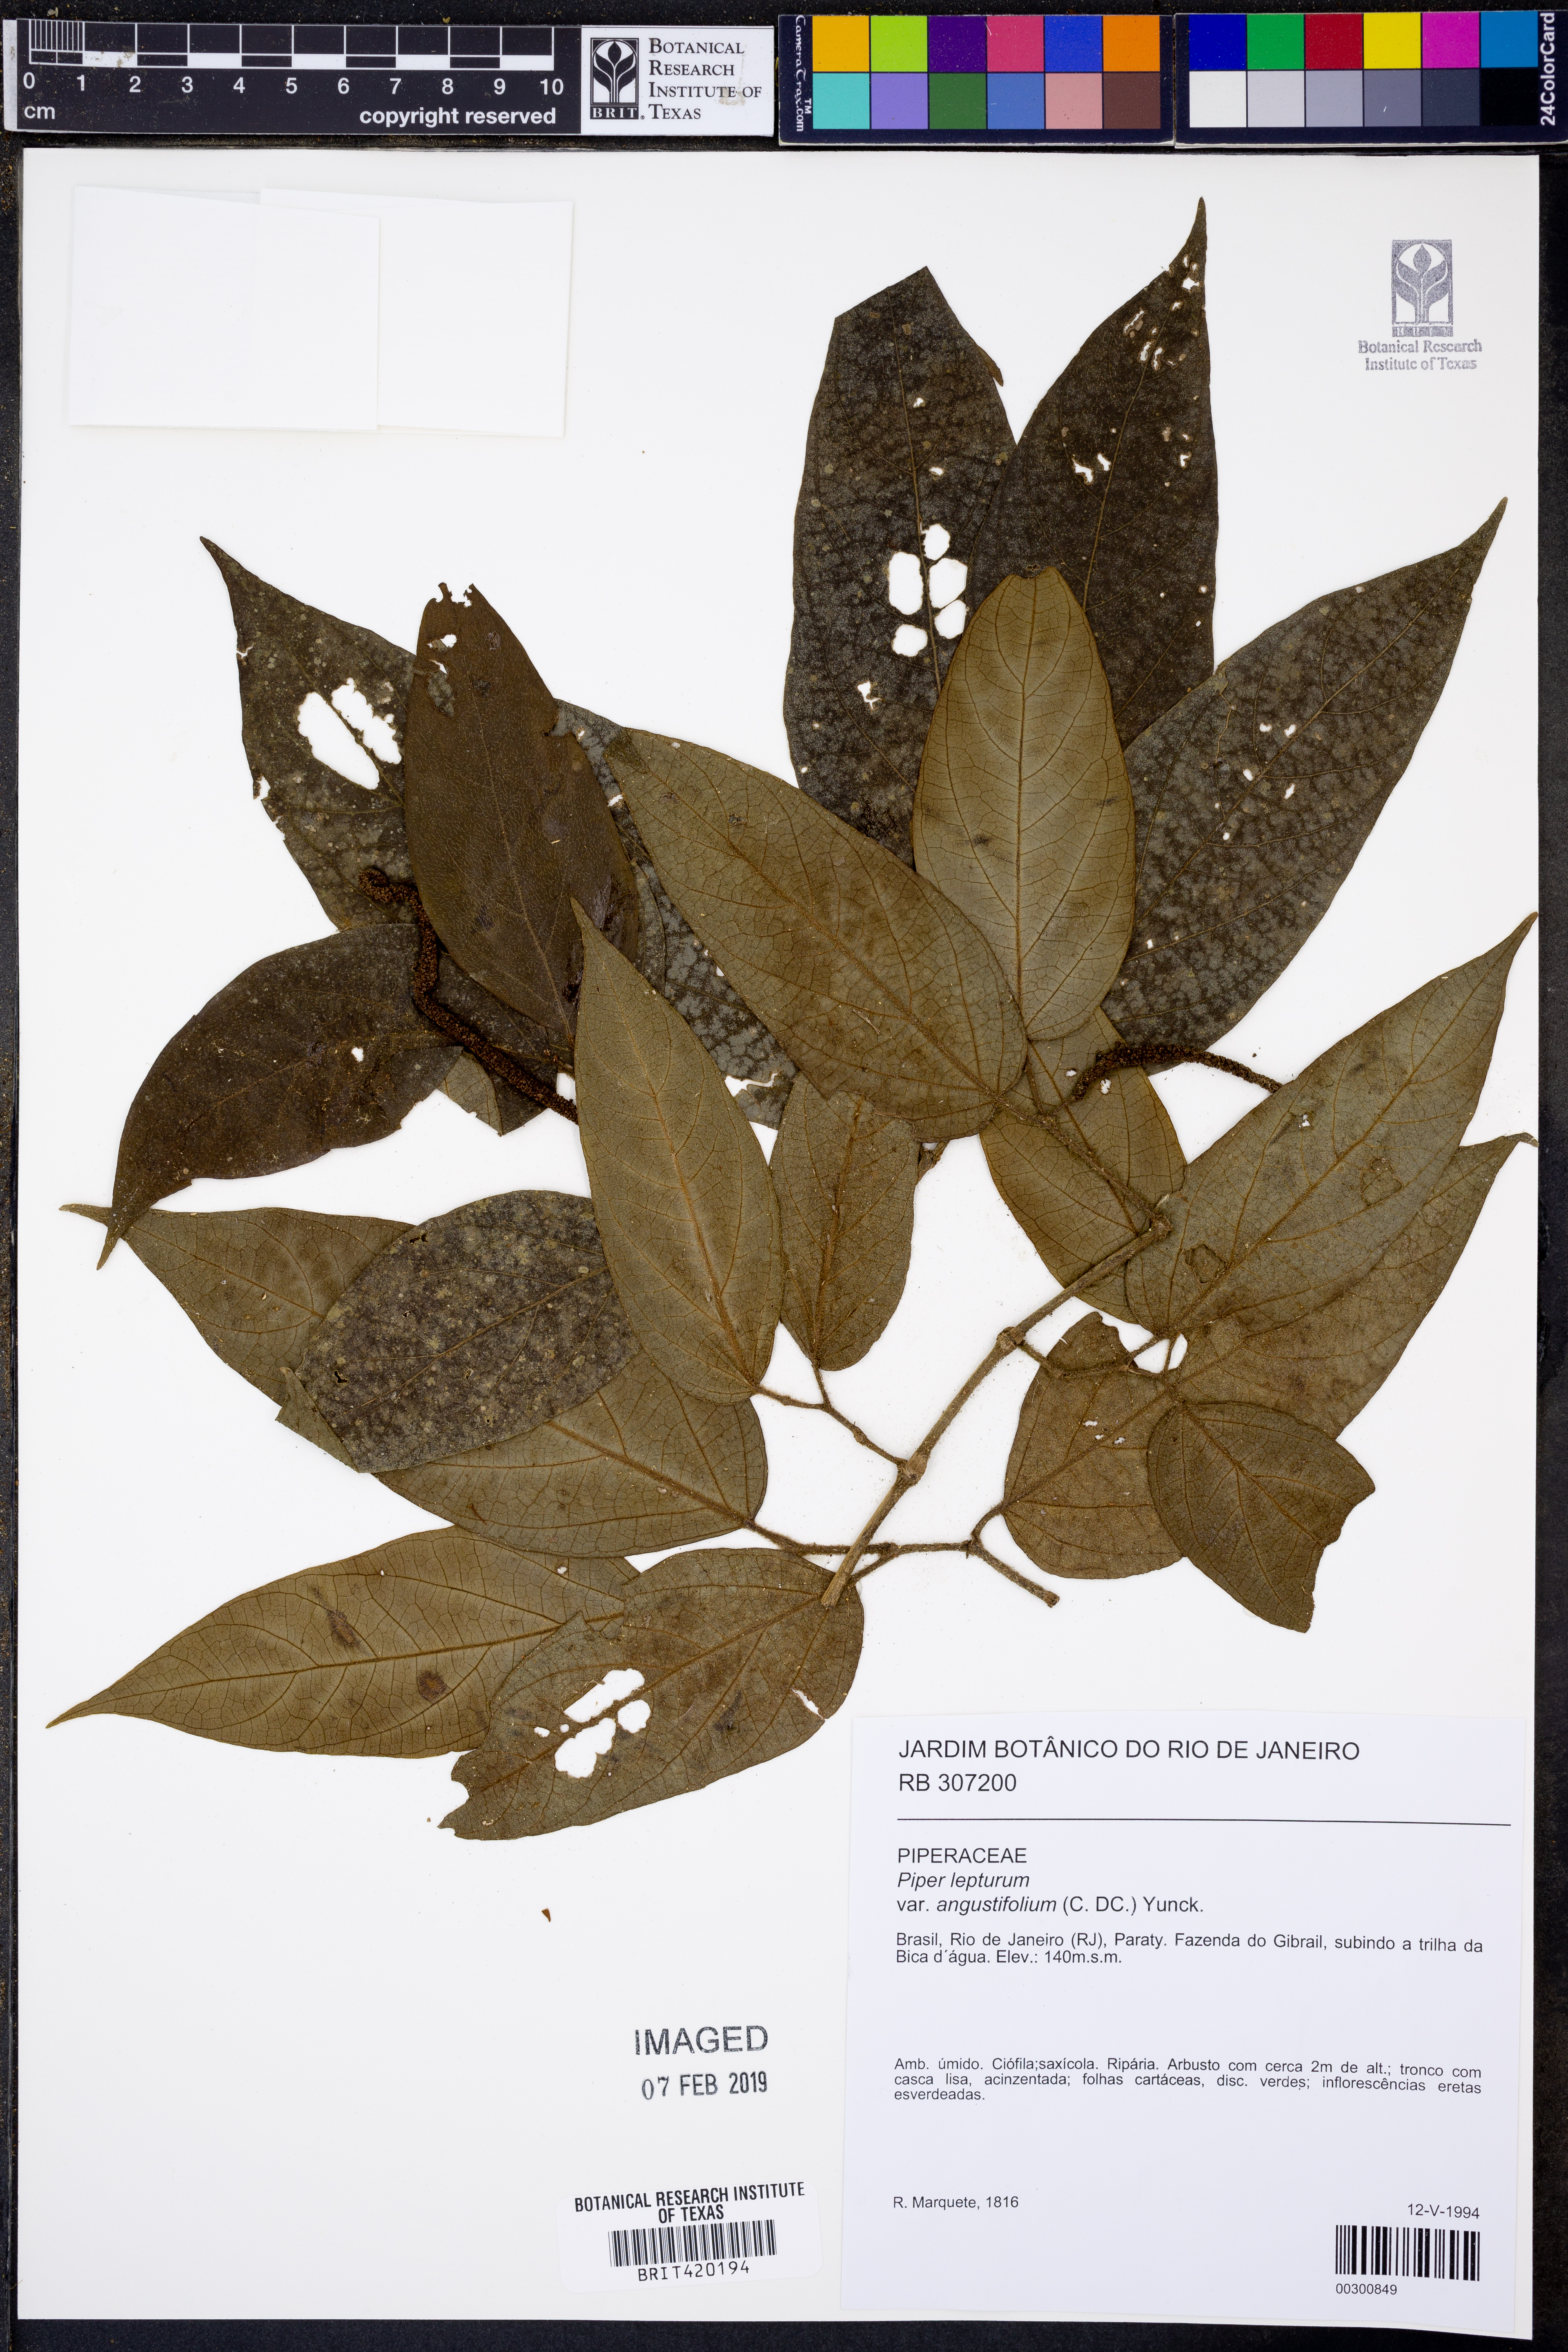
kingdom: Plantae
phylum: Tracheophyta
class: Magnoliopsida
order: Piperales
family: Piperaceae
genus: Piper
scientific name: Piper lepturum
